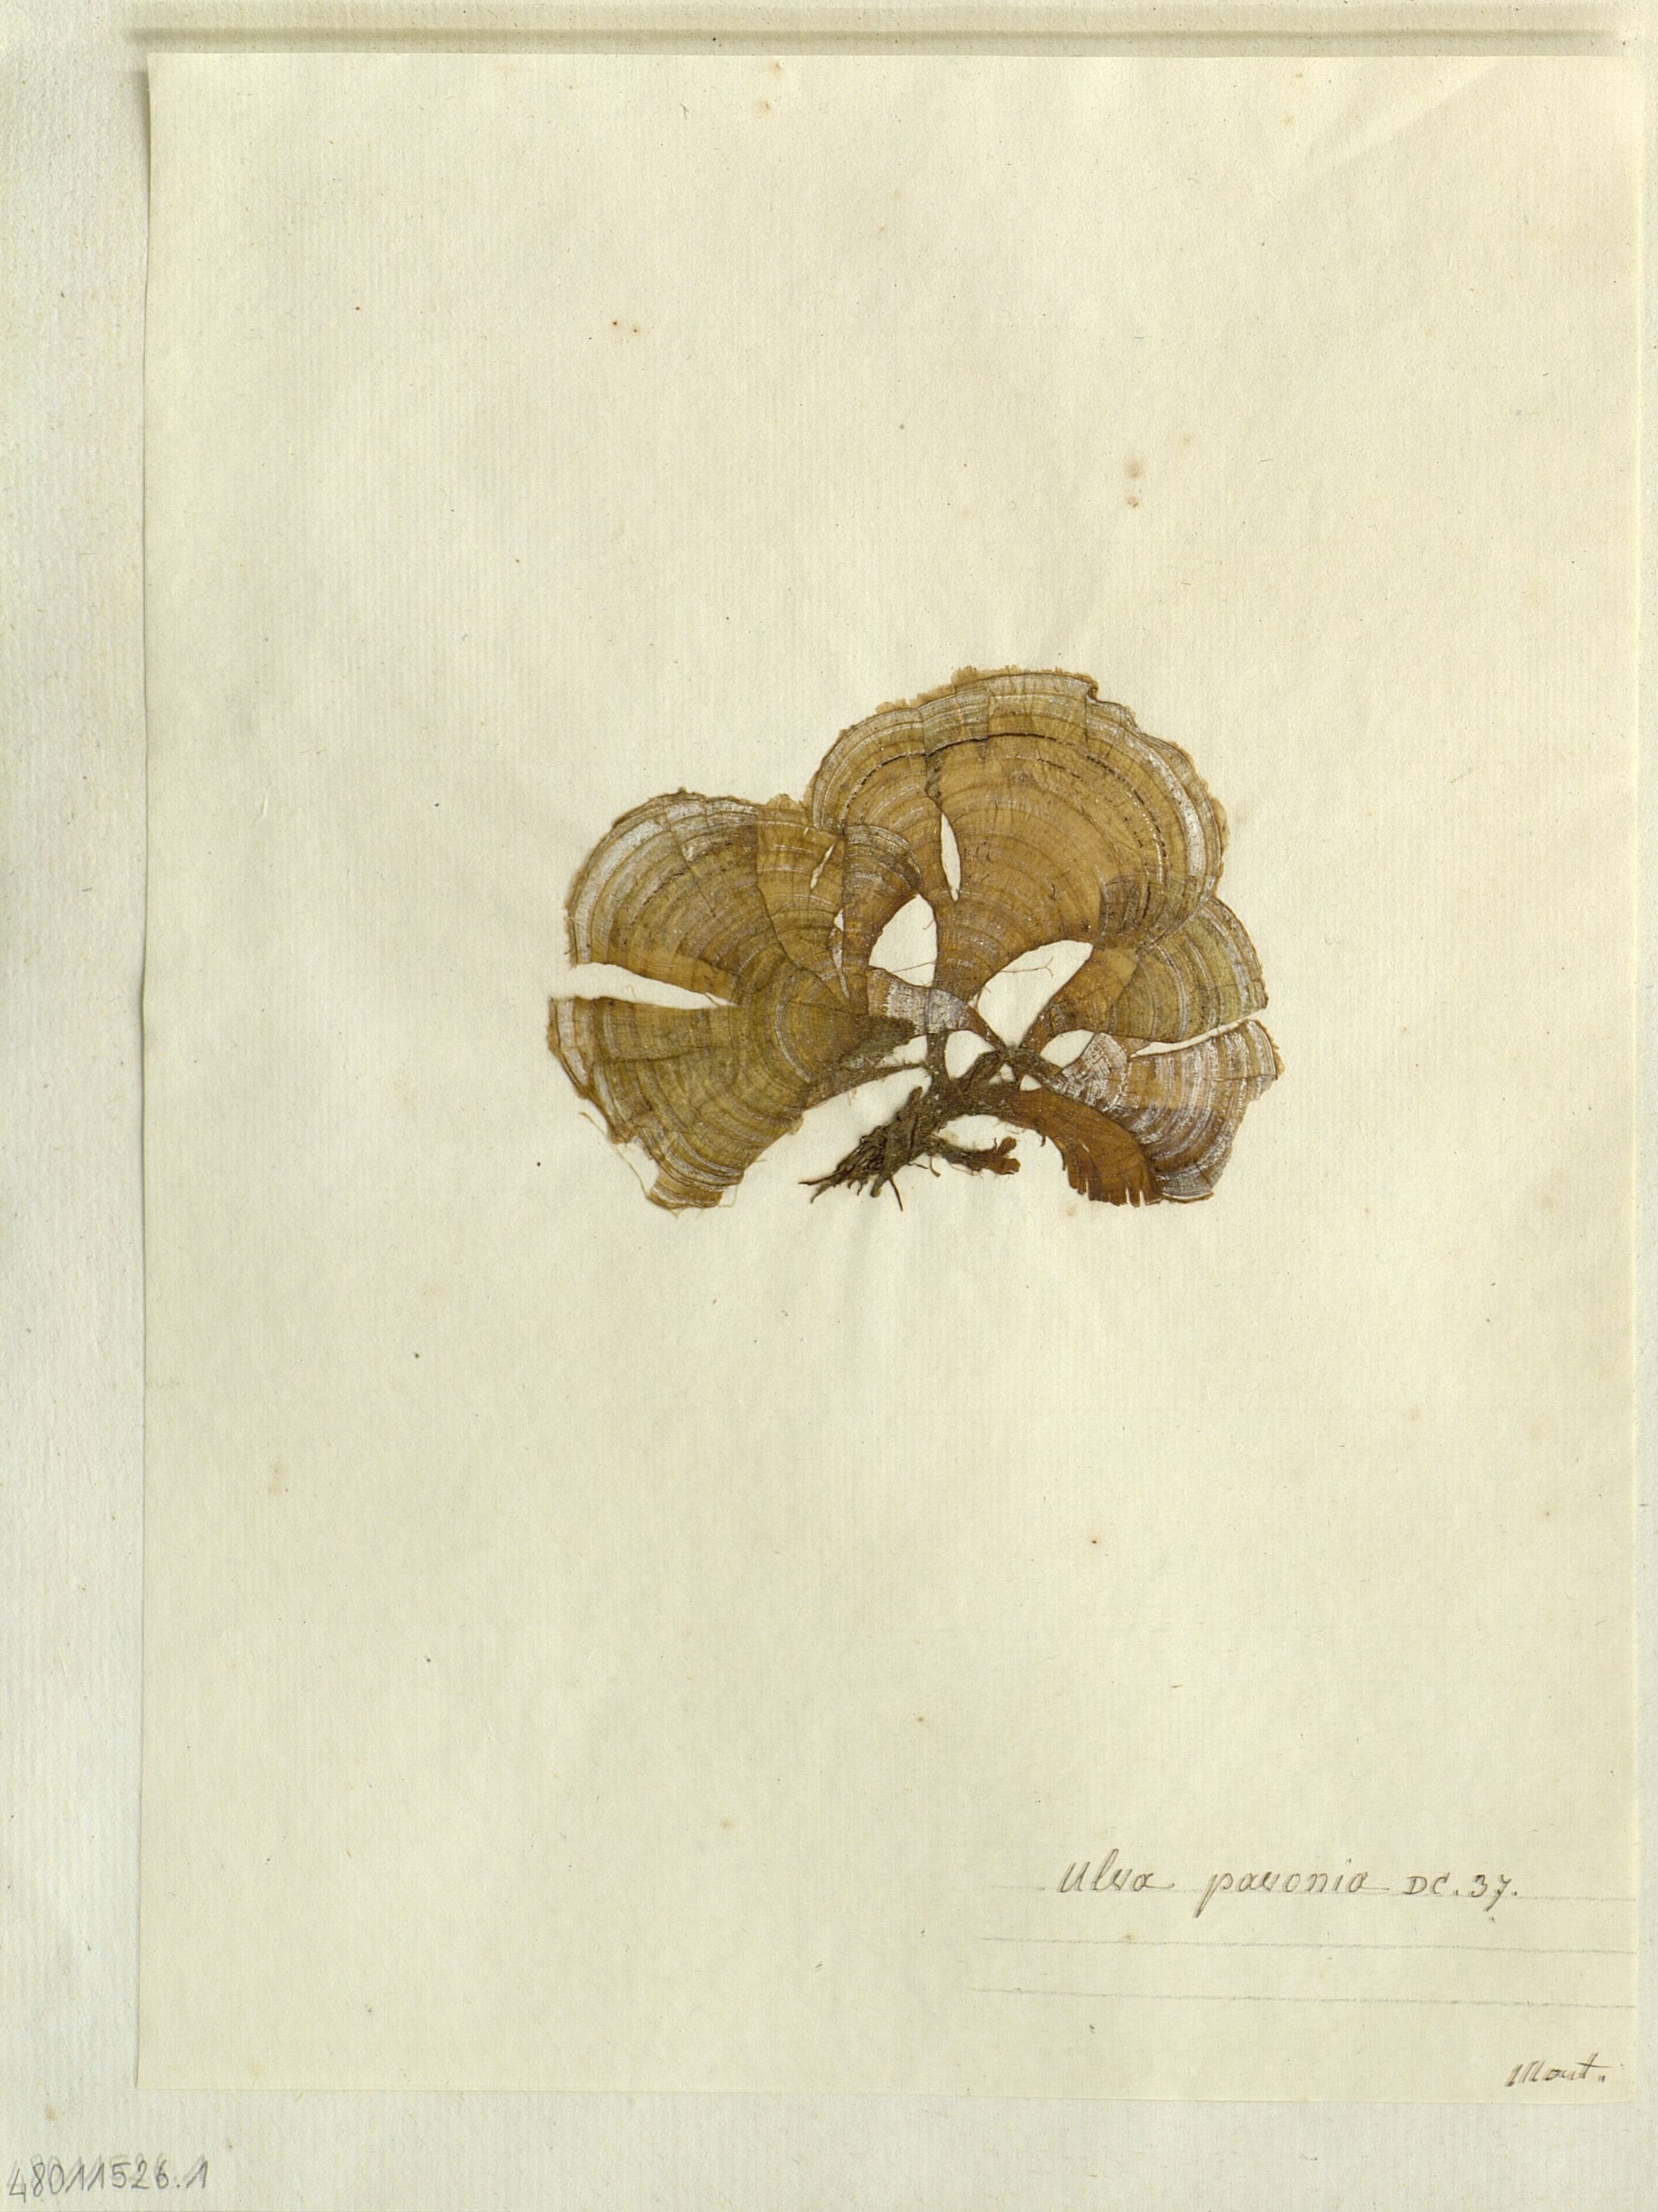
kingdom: Plantae
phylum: Chlorophyta
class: Ulvophyceae
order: Ulvales
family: Ulvaceae
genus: Ulva
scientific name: Ulva
